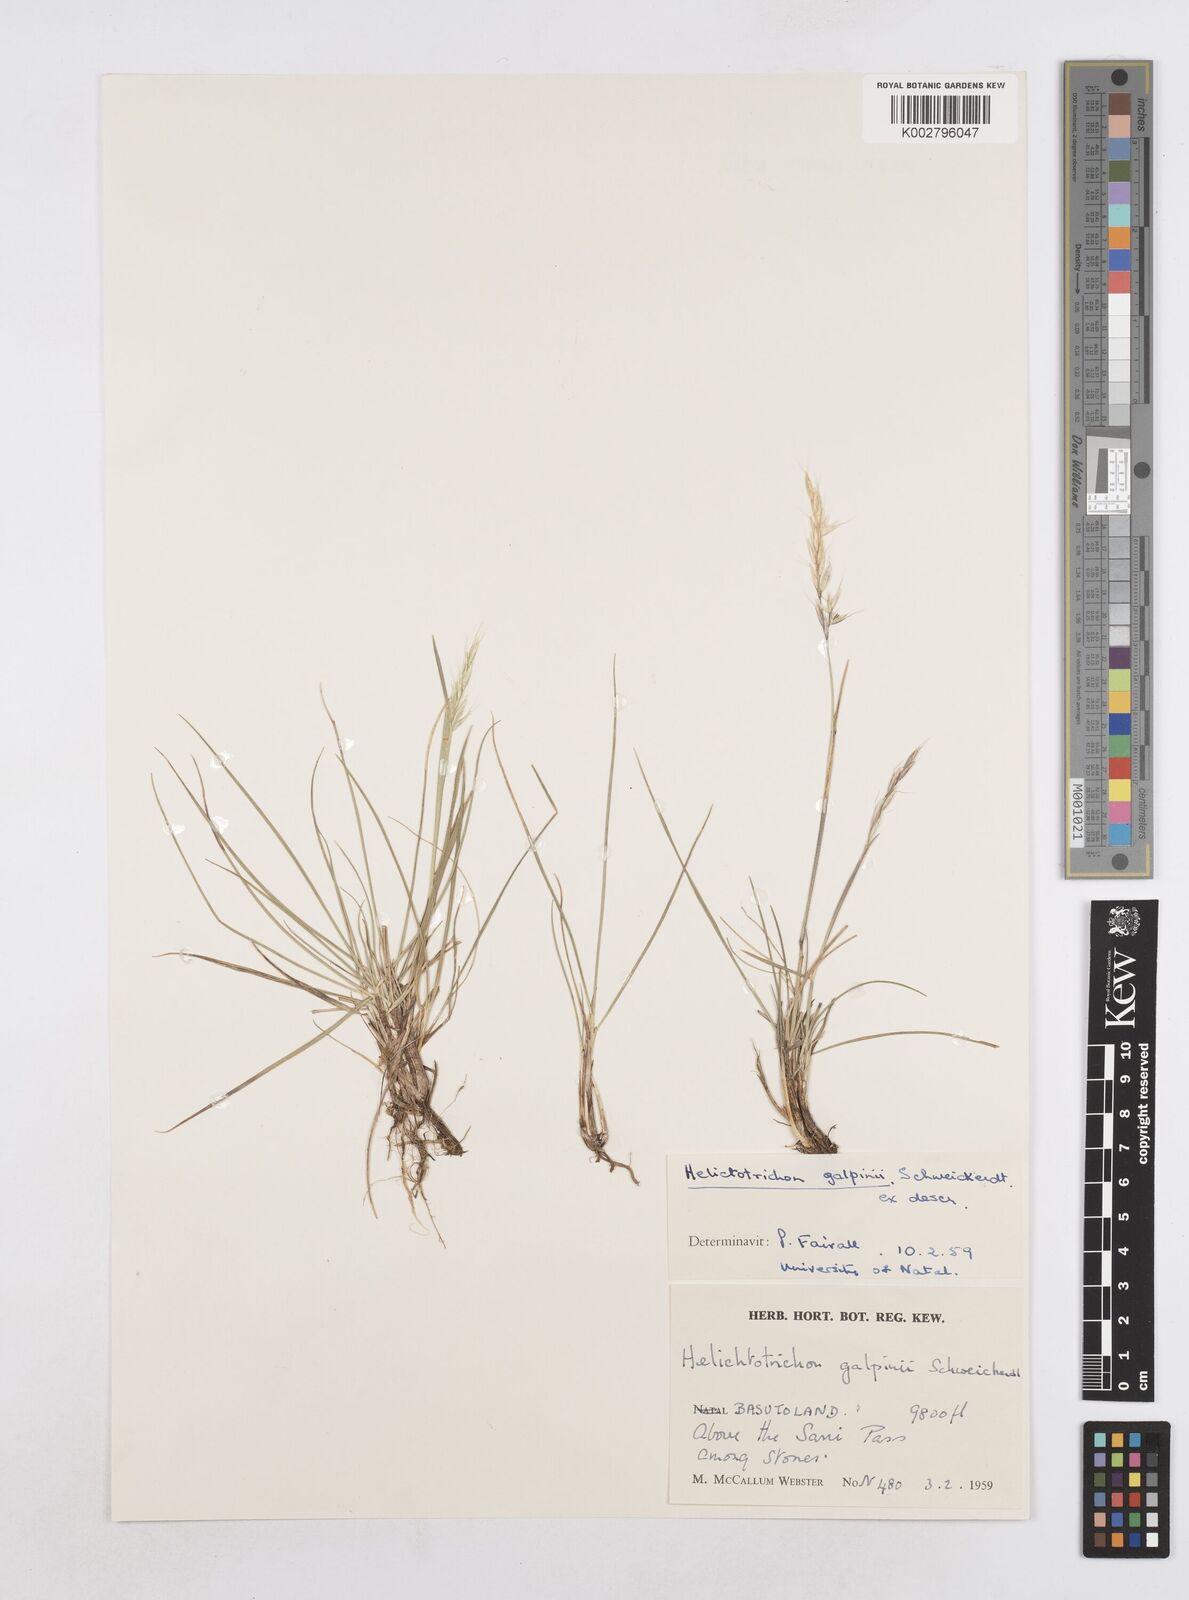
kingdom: Plantae
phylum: Tracheophyta
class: Liliopsida
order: Poales
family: Poaceae
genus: Trisetopsis
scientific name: Trisetopsis galpinii
